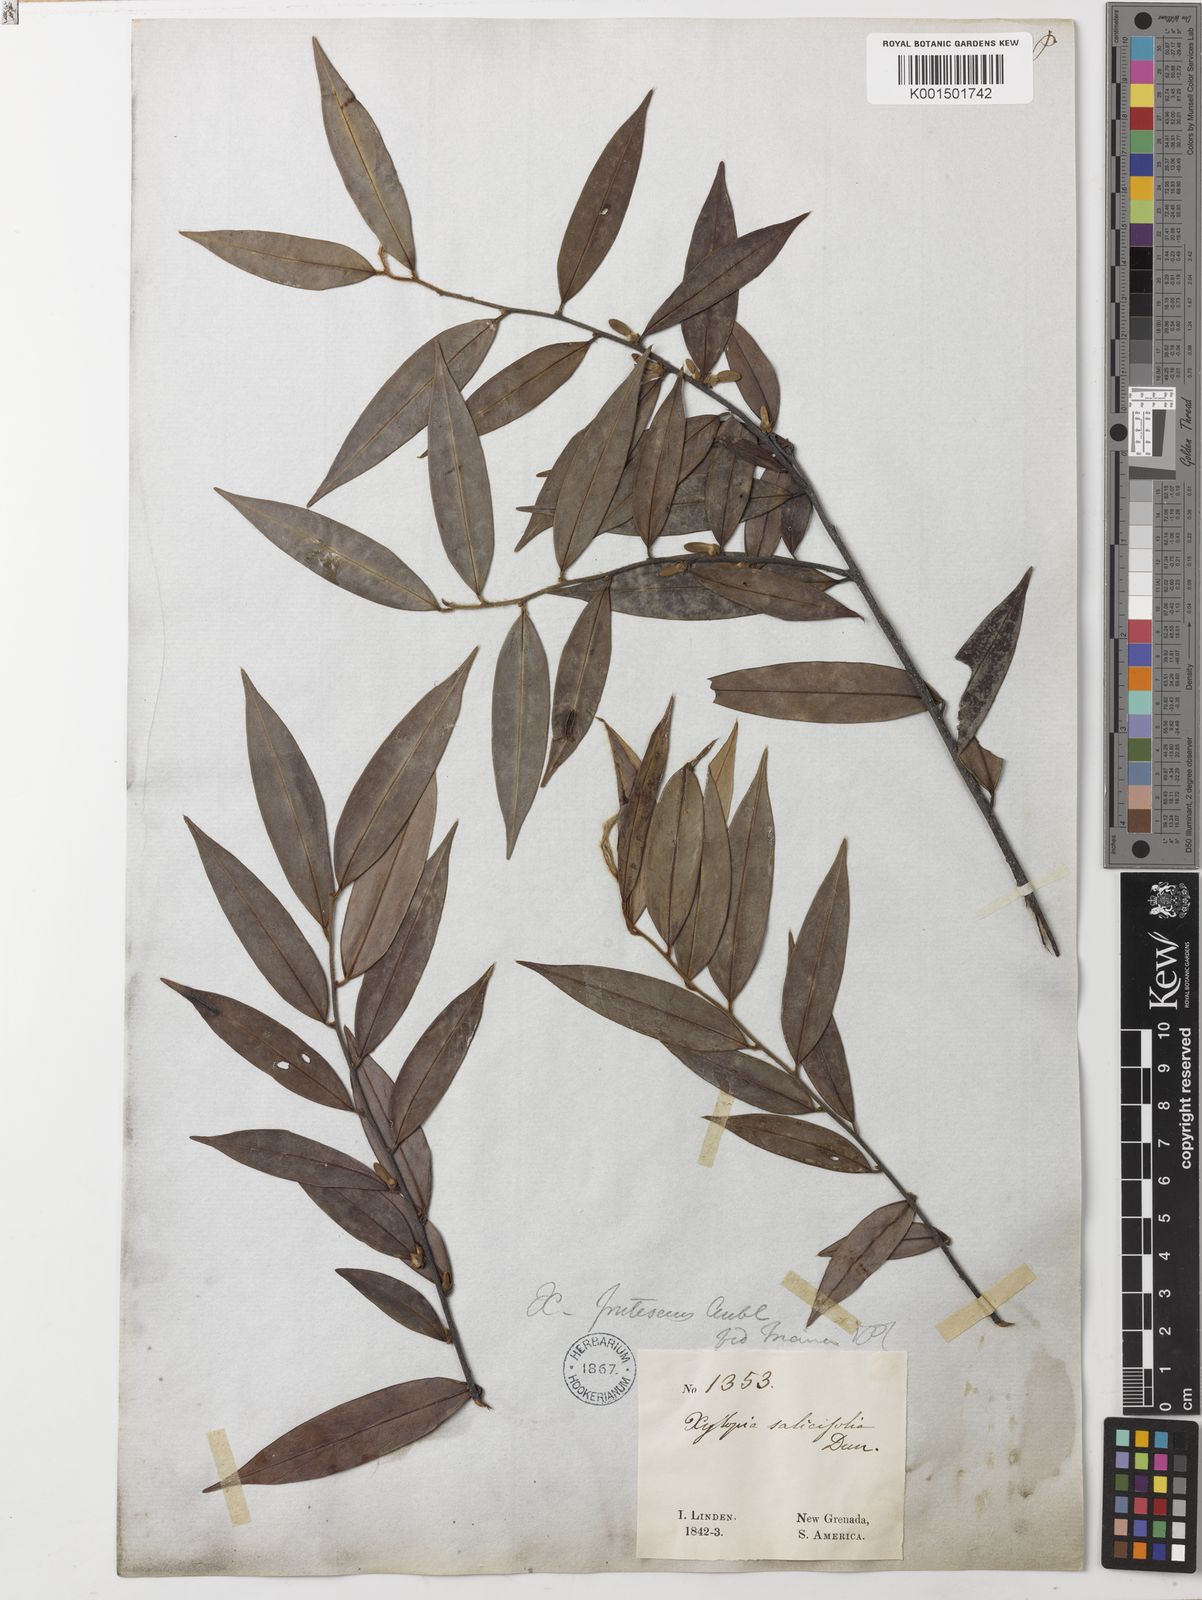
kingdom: Plantae
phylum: Tracheophyta
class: Magnoliopsida
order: Magnoliales
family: Annonaceae
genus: Xylopia
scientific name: Xylopia frutescens
